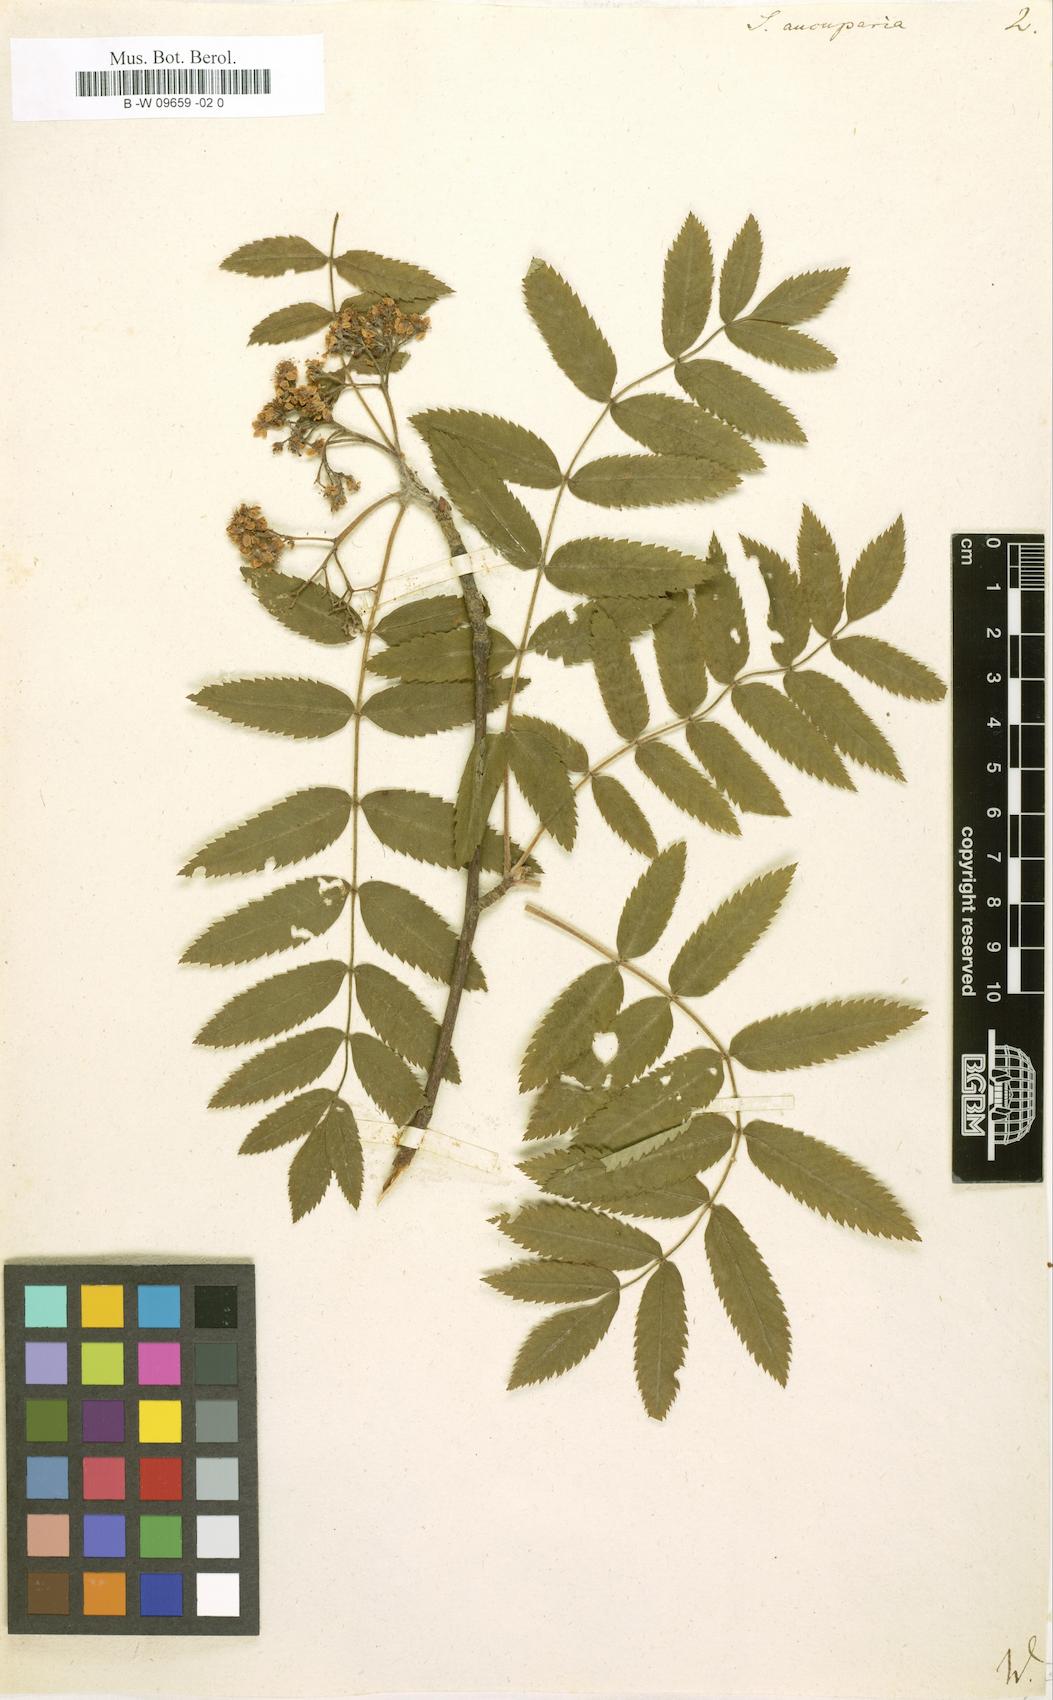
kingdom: Plantae
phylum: Tracheophyta
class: Magnoliopsida
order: Rosales
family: Rosaceae
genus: Sorbus
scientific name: Sorbus aucuparia
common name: Rowan
